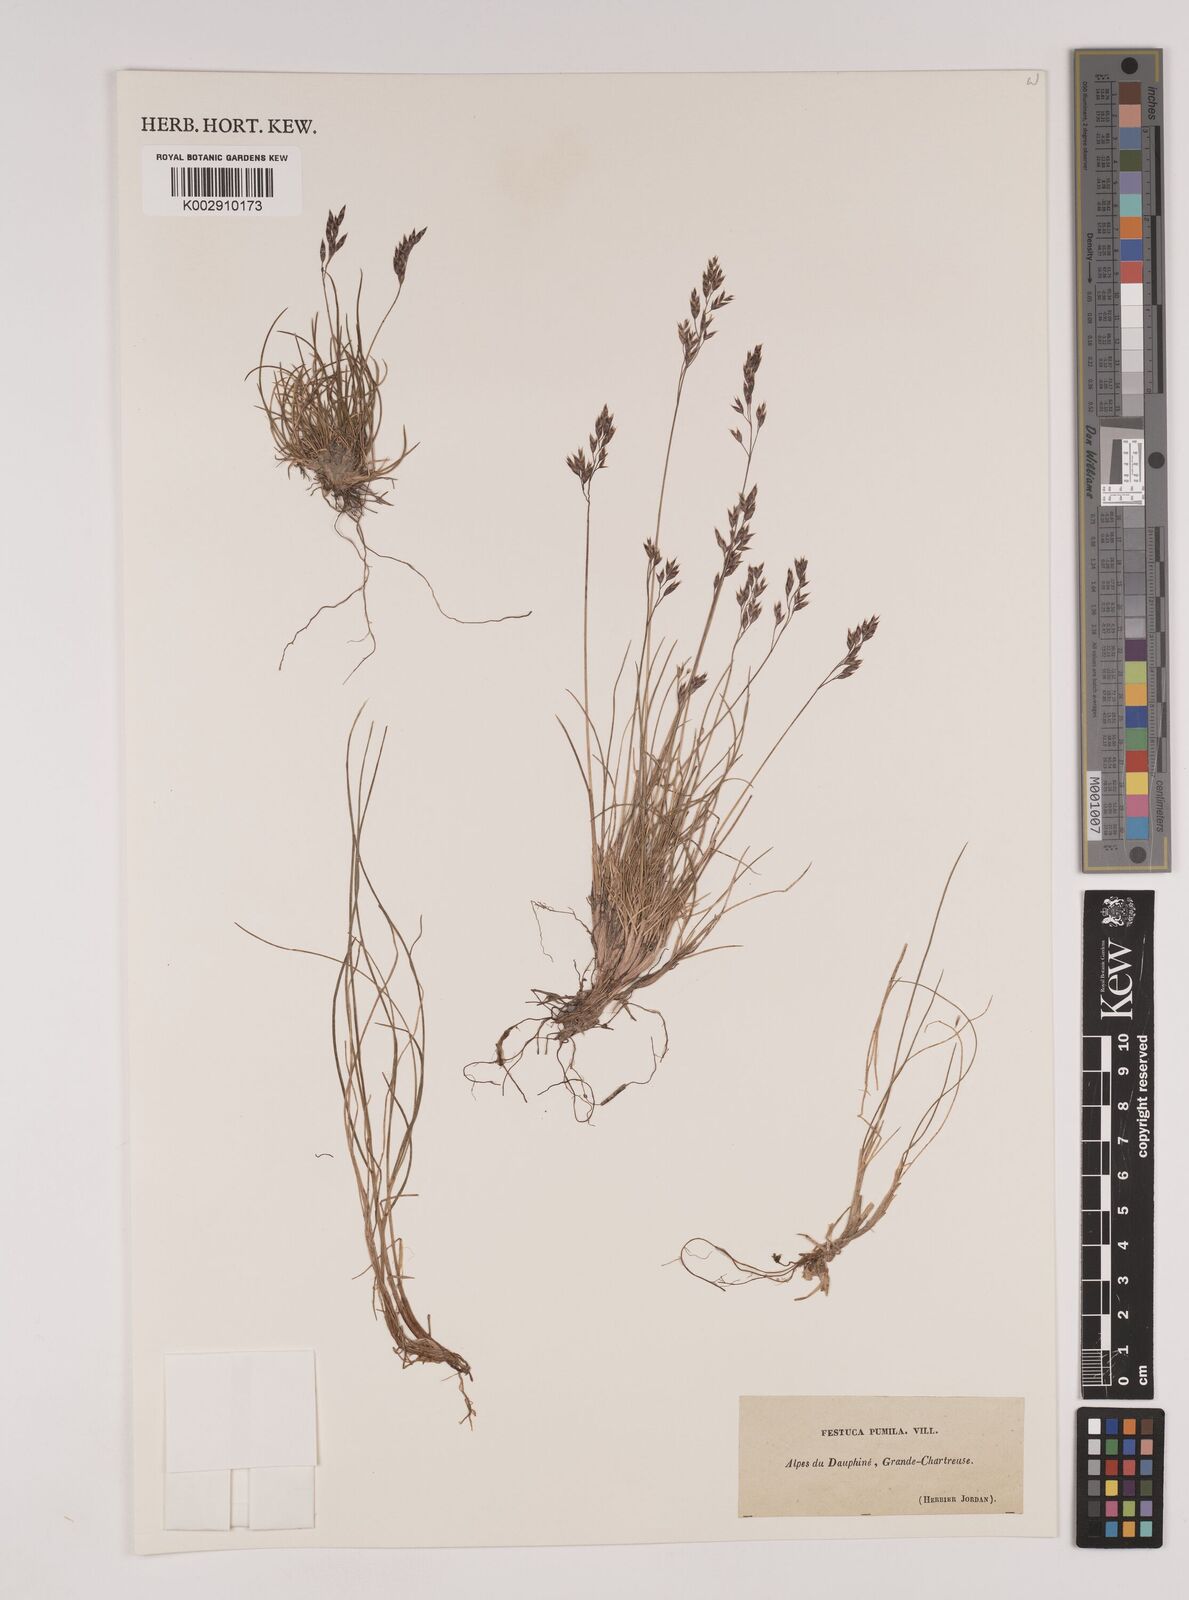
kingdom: Plantae
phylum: Tracheophyta
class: Liliopsida
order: Poales
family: Poaceae
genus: Festuca
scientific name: Festuca
